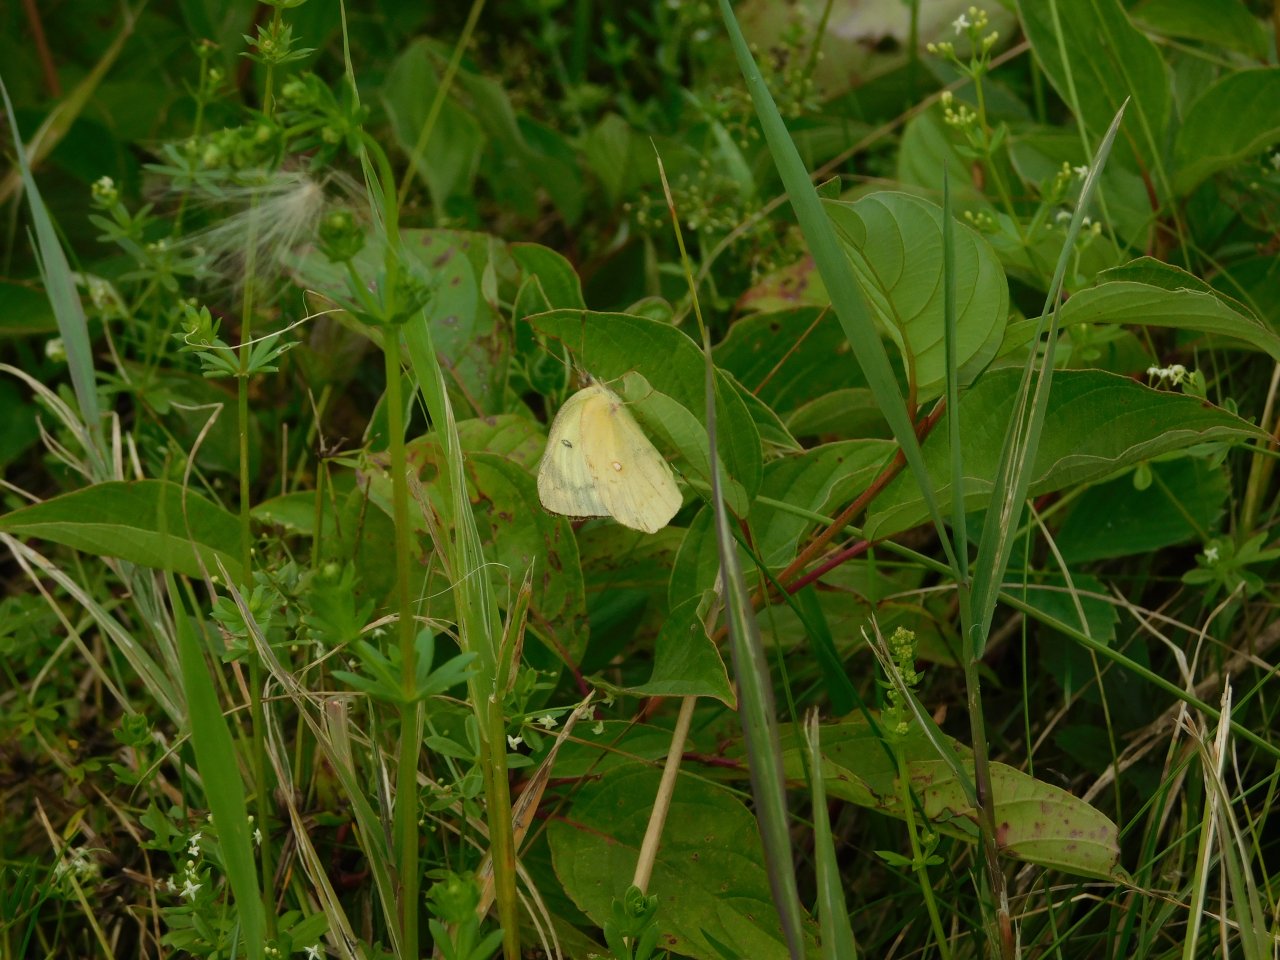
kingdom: Animalia
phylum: Arthropoda
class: Insecta
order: Lepidoptera
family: Pieridae
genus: Colias
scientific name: Colias philodice
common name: Clouded Sulphur
